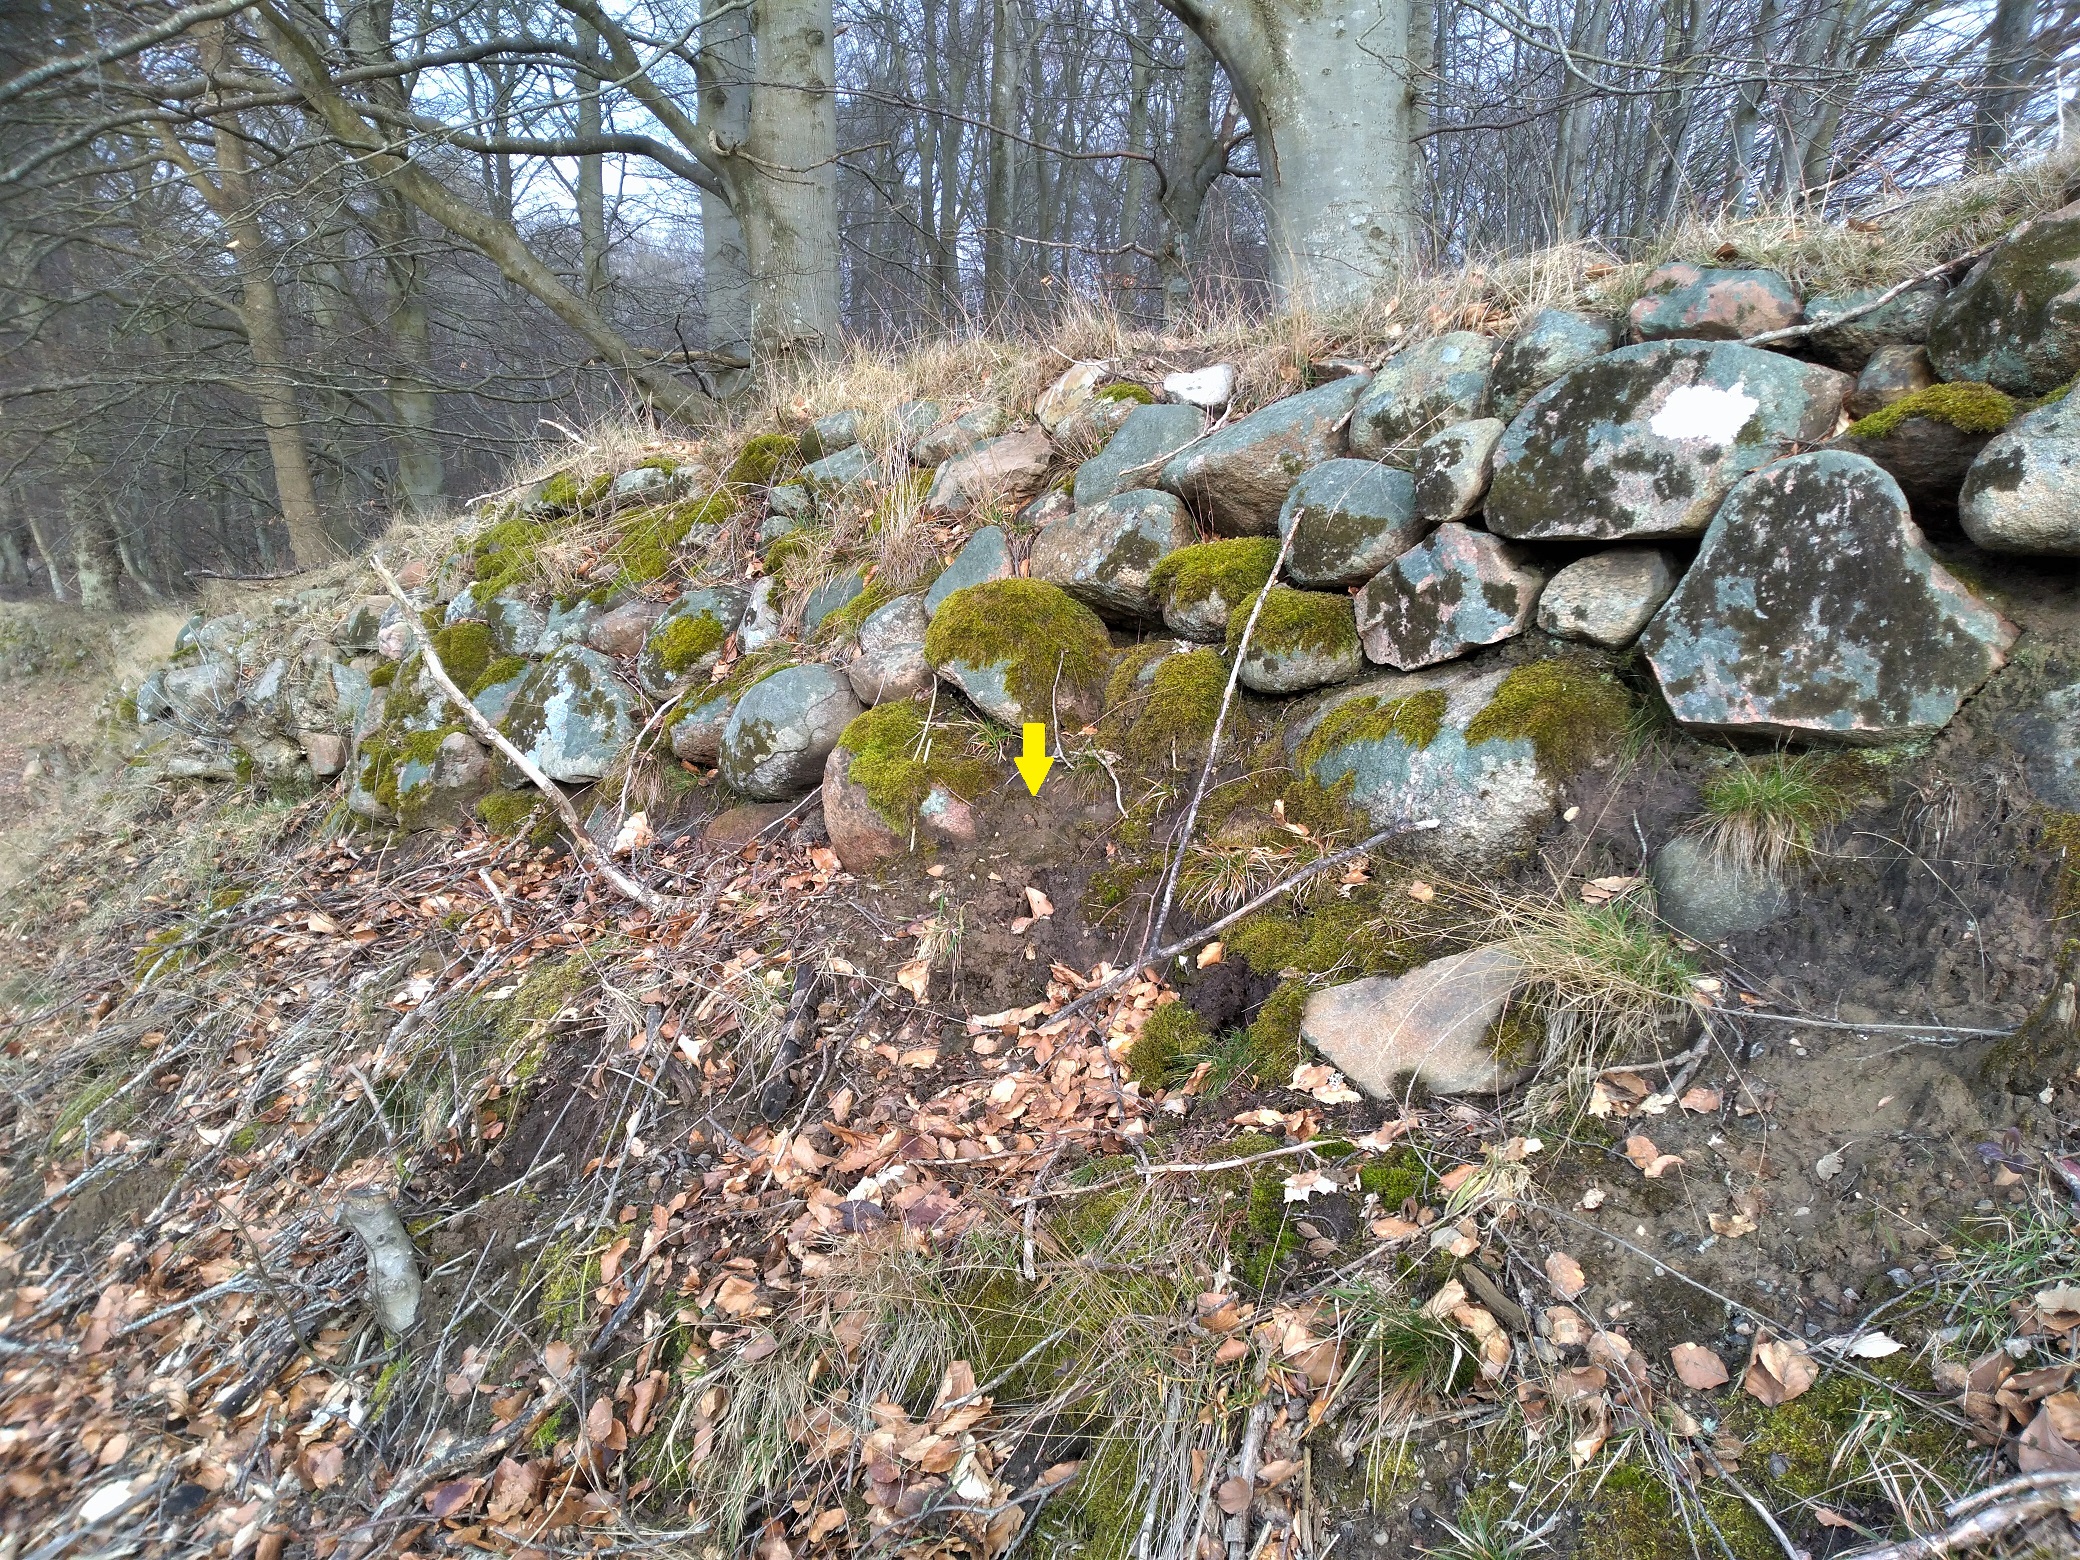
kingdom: Plantae
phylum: Bryophyta
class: Bryopsida
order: Pottiales
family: Pottiaceae
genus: Acaulon
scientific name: Acaulon muticum
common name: Siddende ægmos
